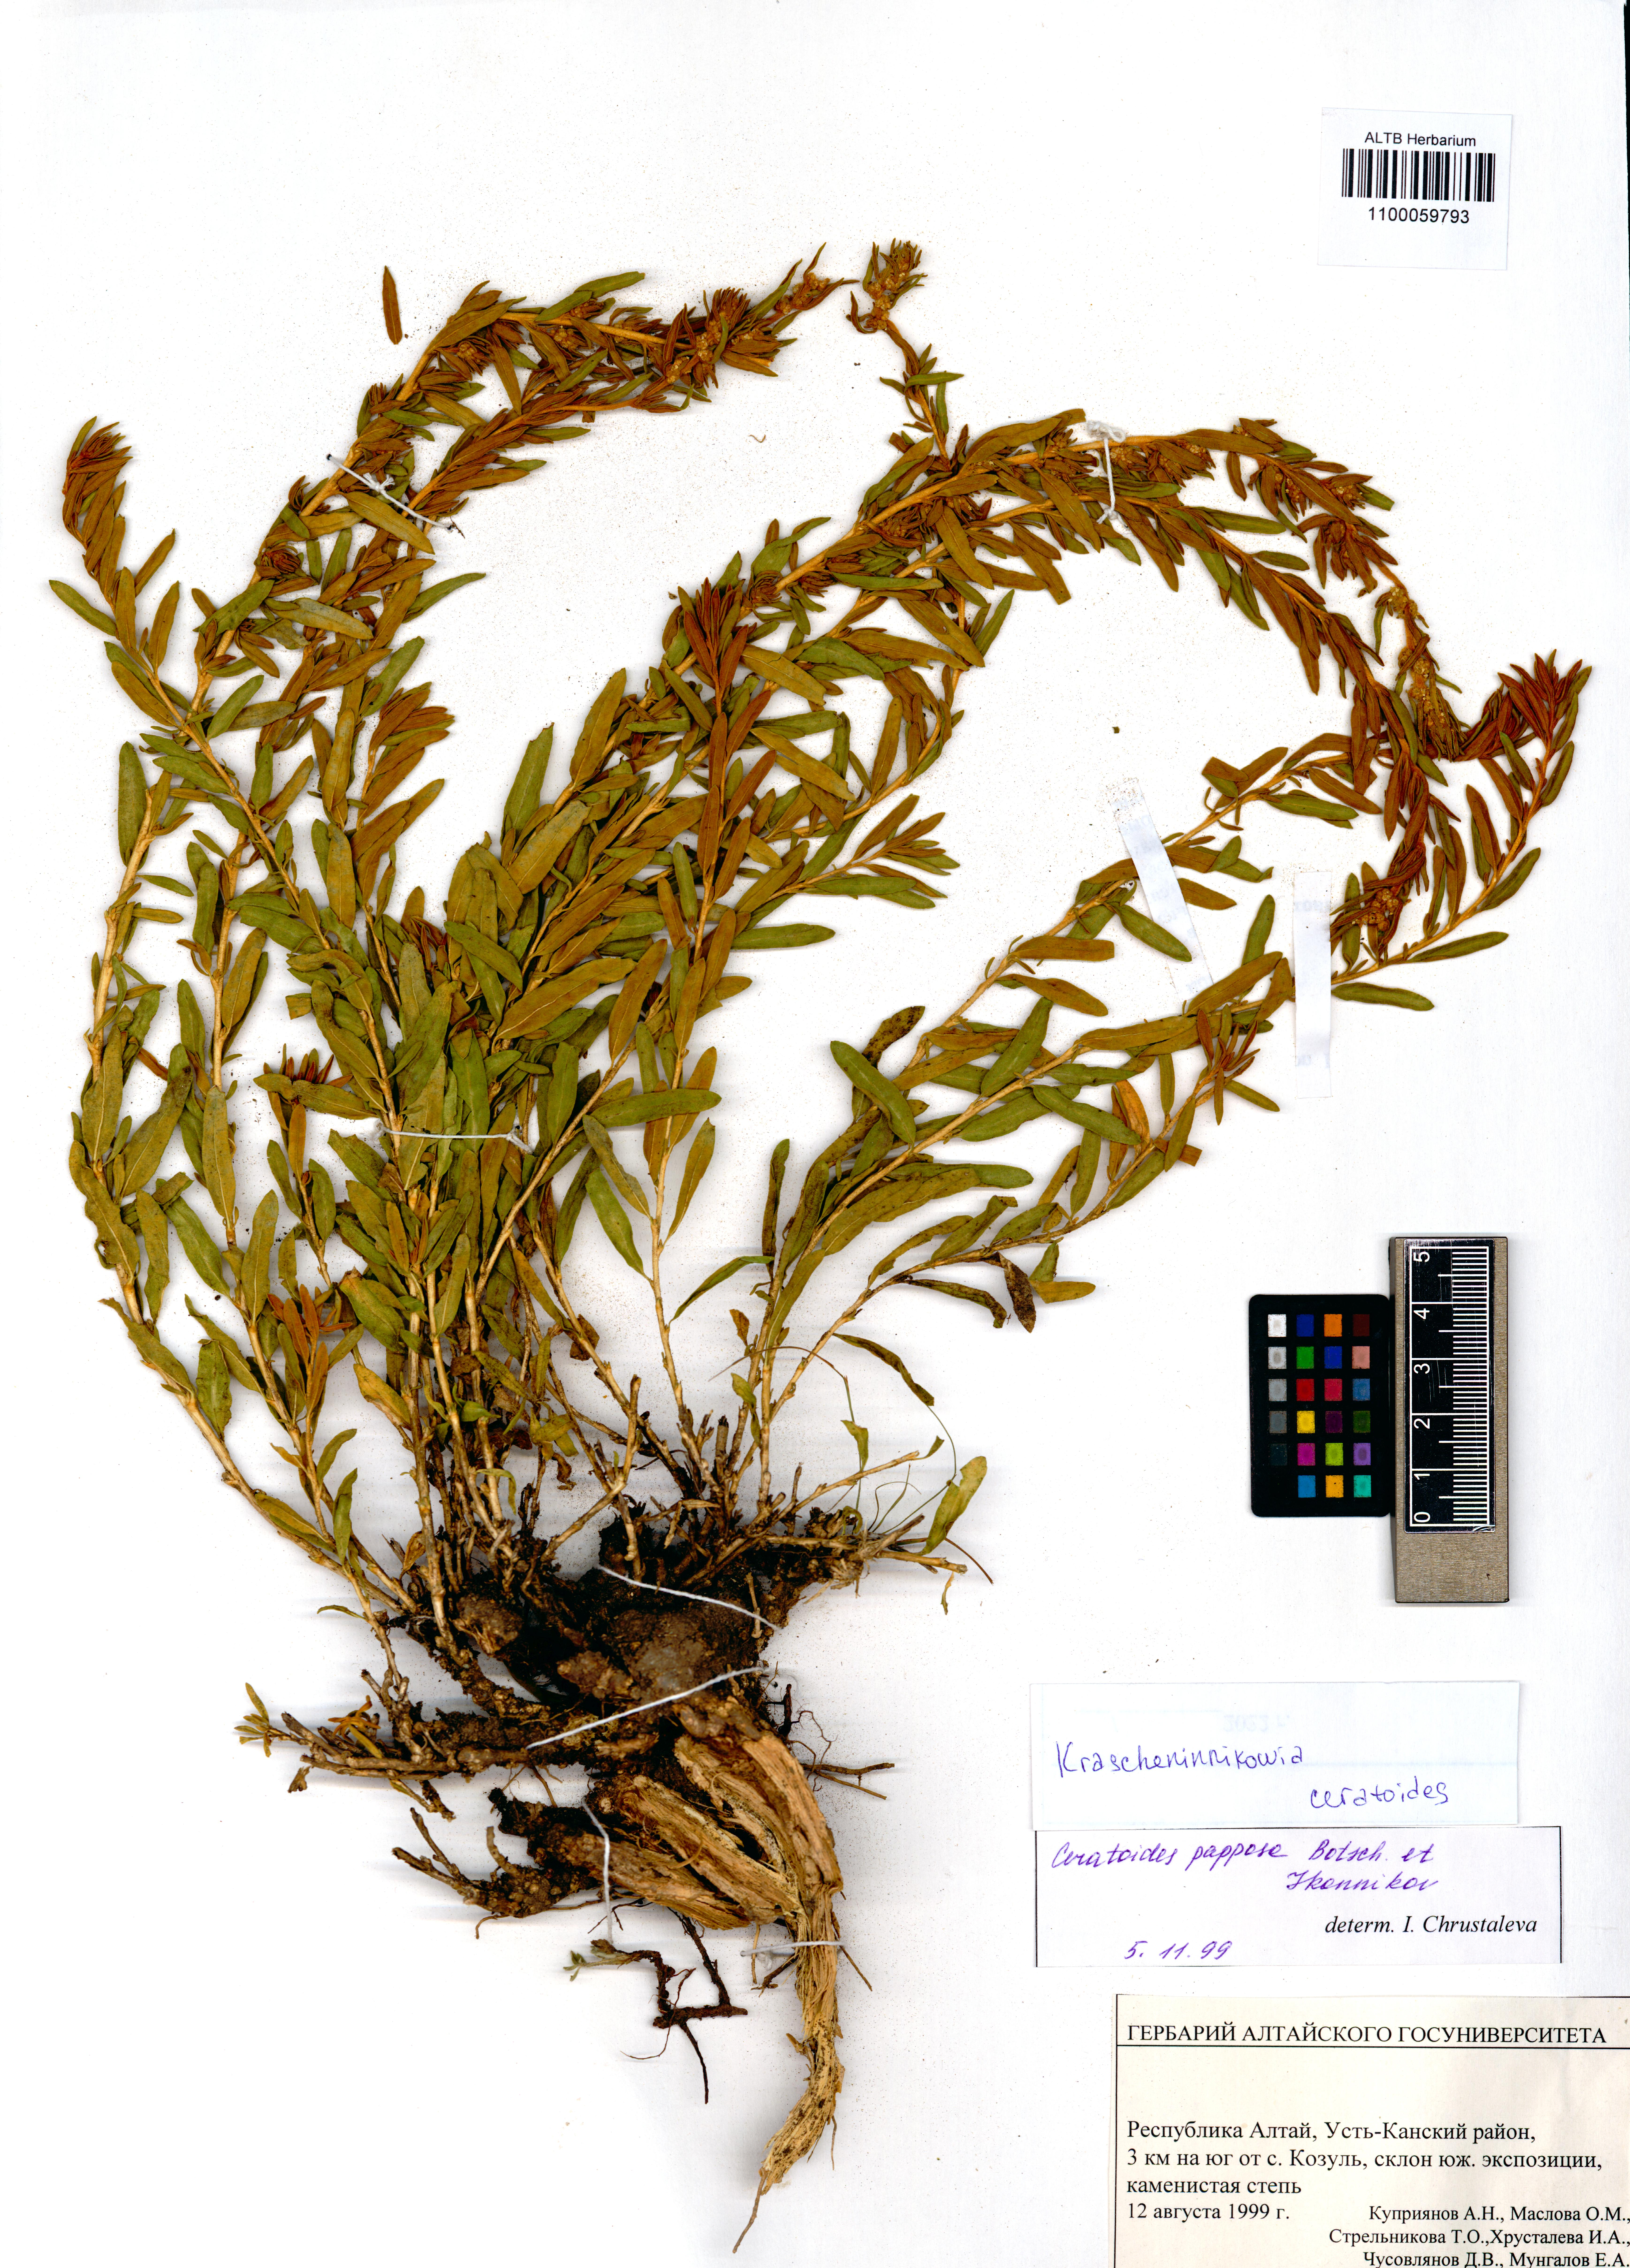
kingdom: Plantae
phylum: Tracheophyta
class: Magnoliopsida
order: Caryophyllales
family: Amaranthaceae
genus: Krascheninnikovia
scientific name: Krascheninnikovia ceratoides
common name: Pamirian winterfat
